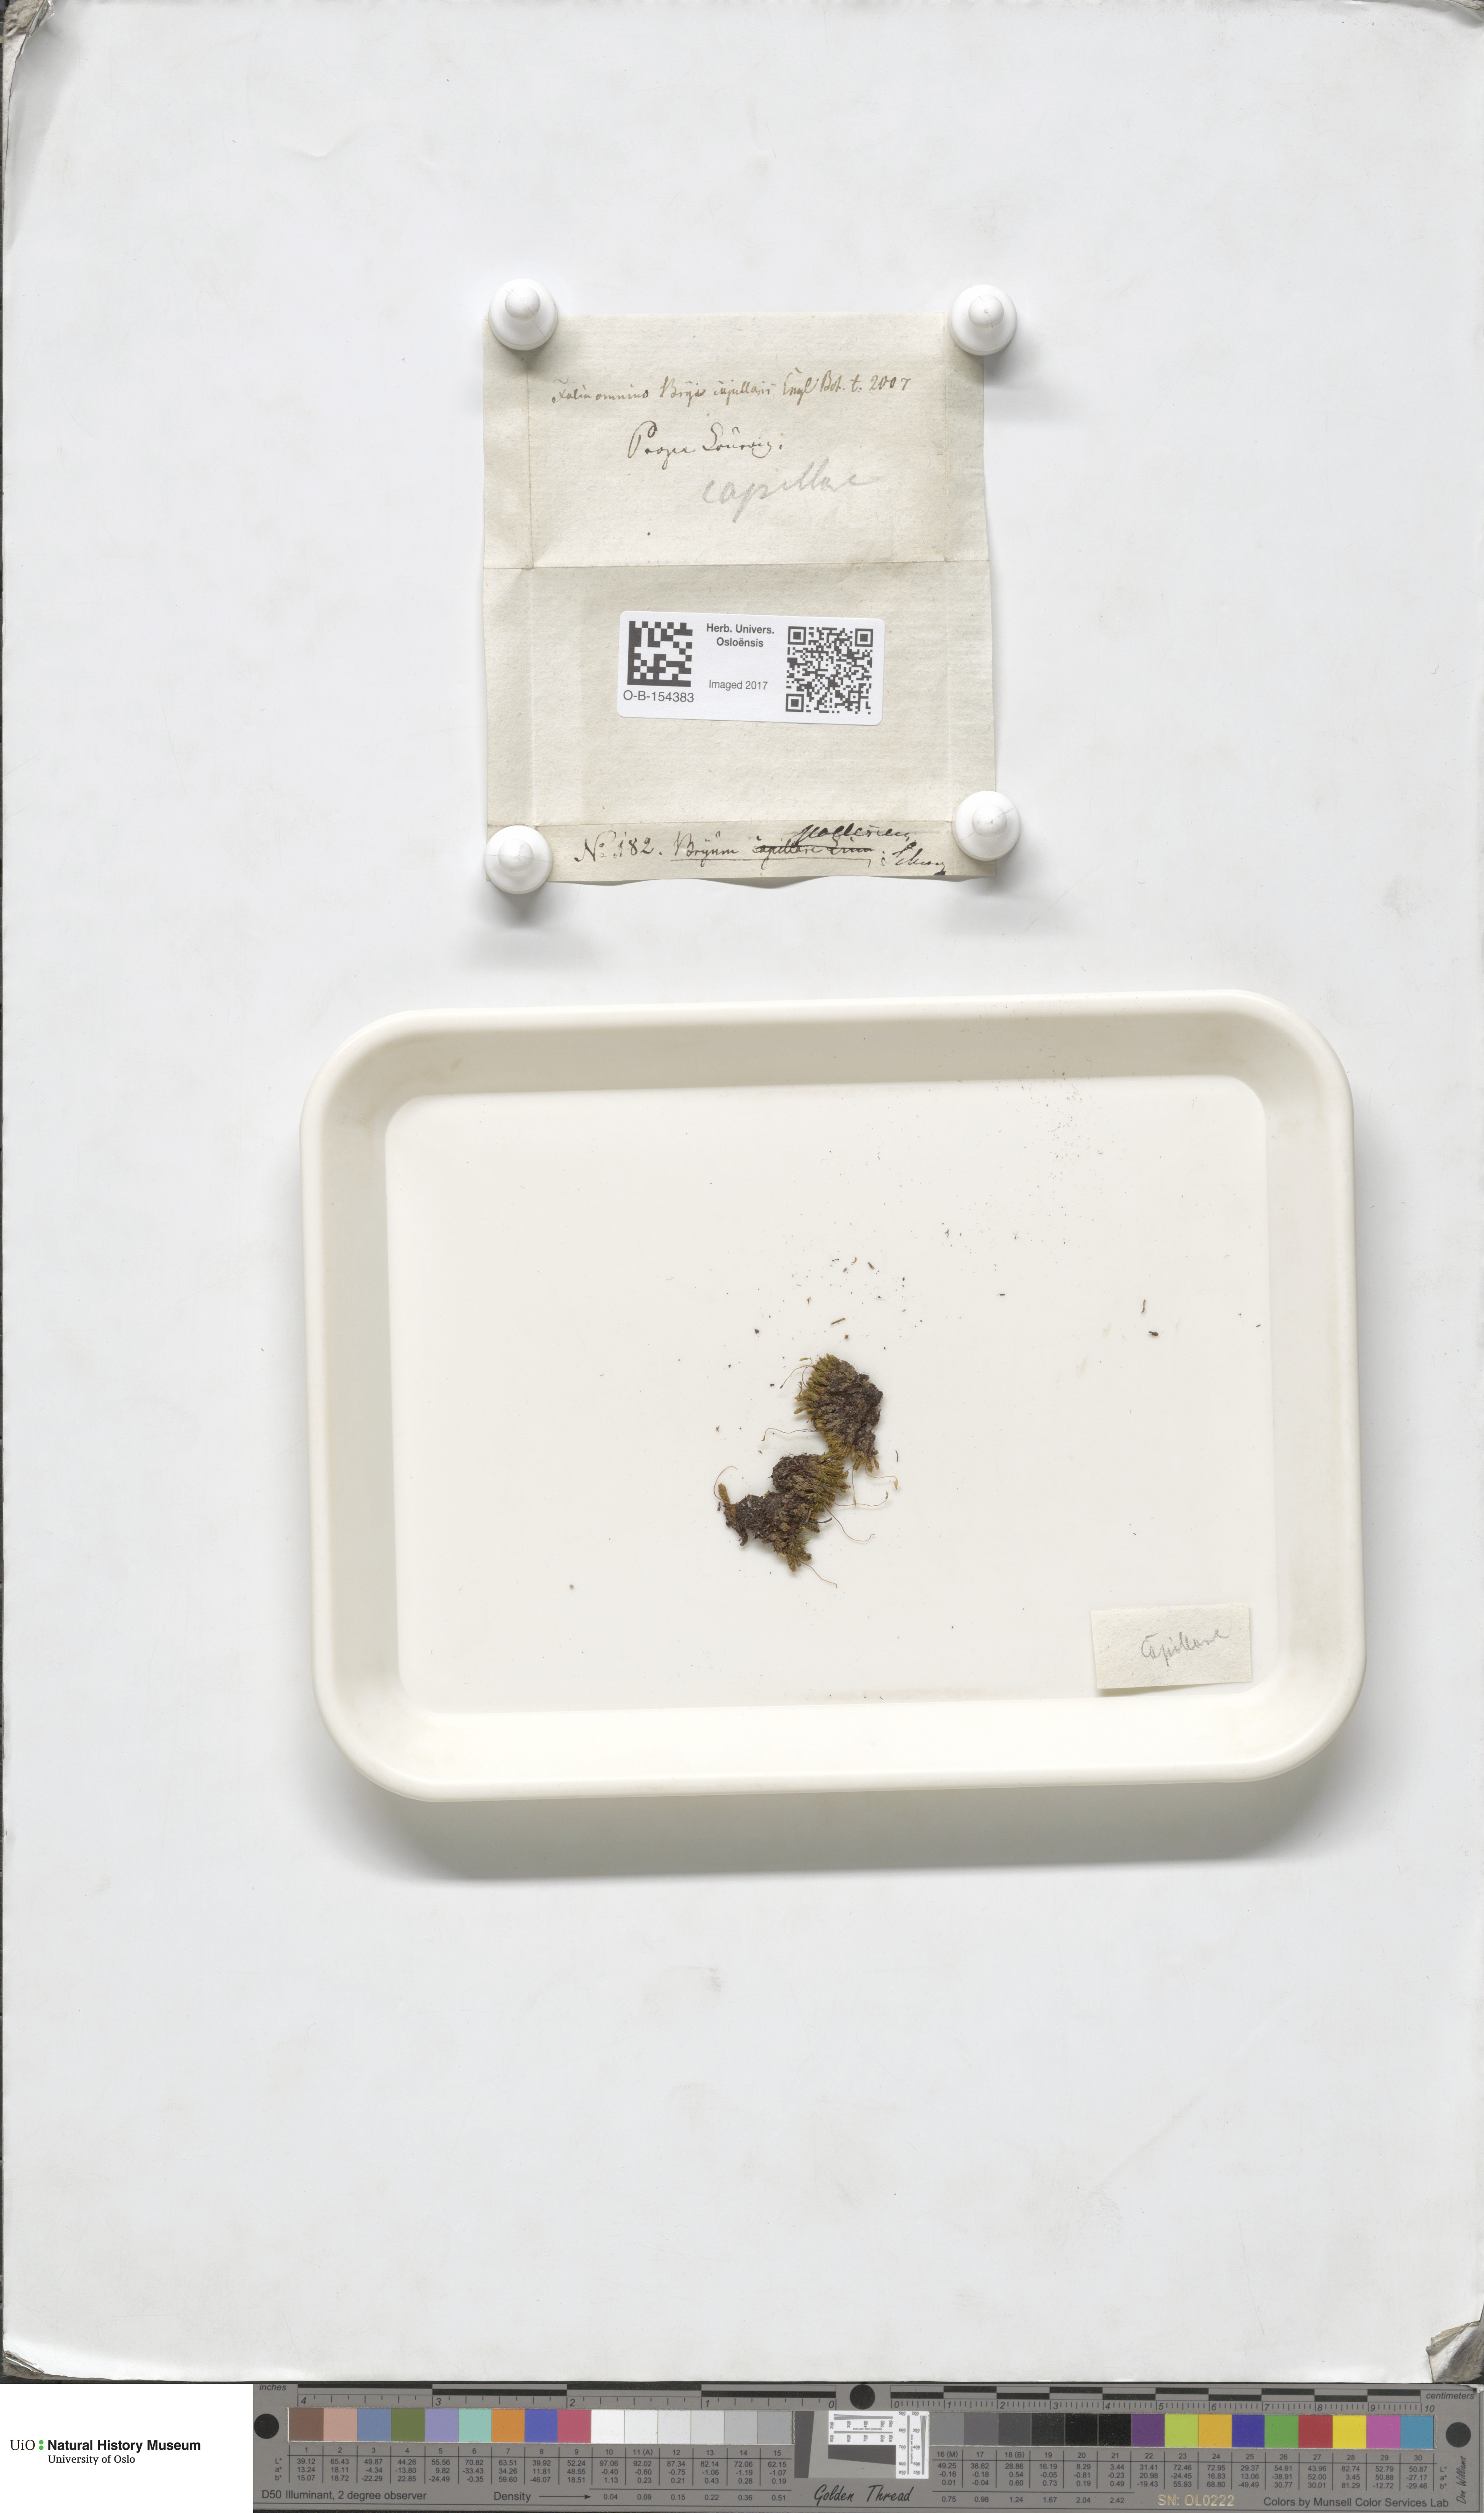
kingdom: Plantae
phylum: Bryophyta
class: Bryopsida
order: Bryales
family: Bryaceae
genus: Rosulabryum
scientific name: Rosulabryum capillare
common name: Capillary thread-moss
